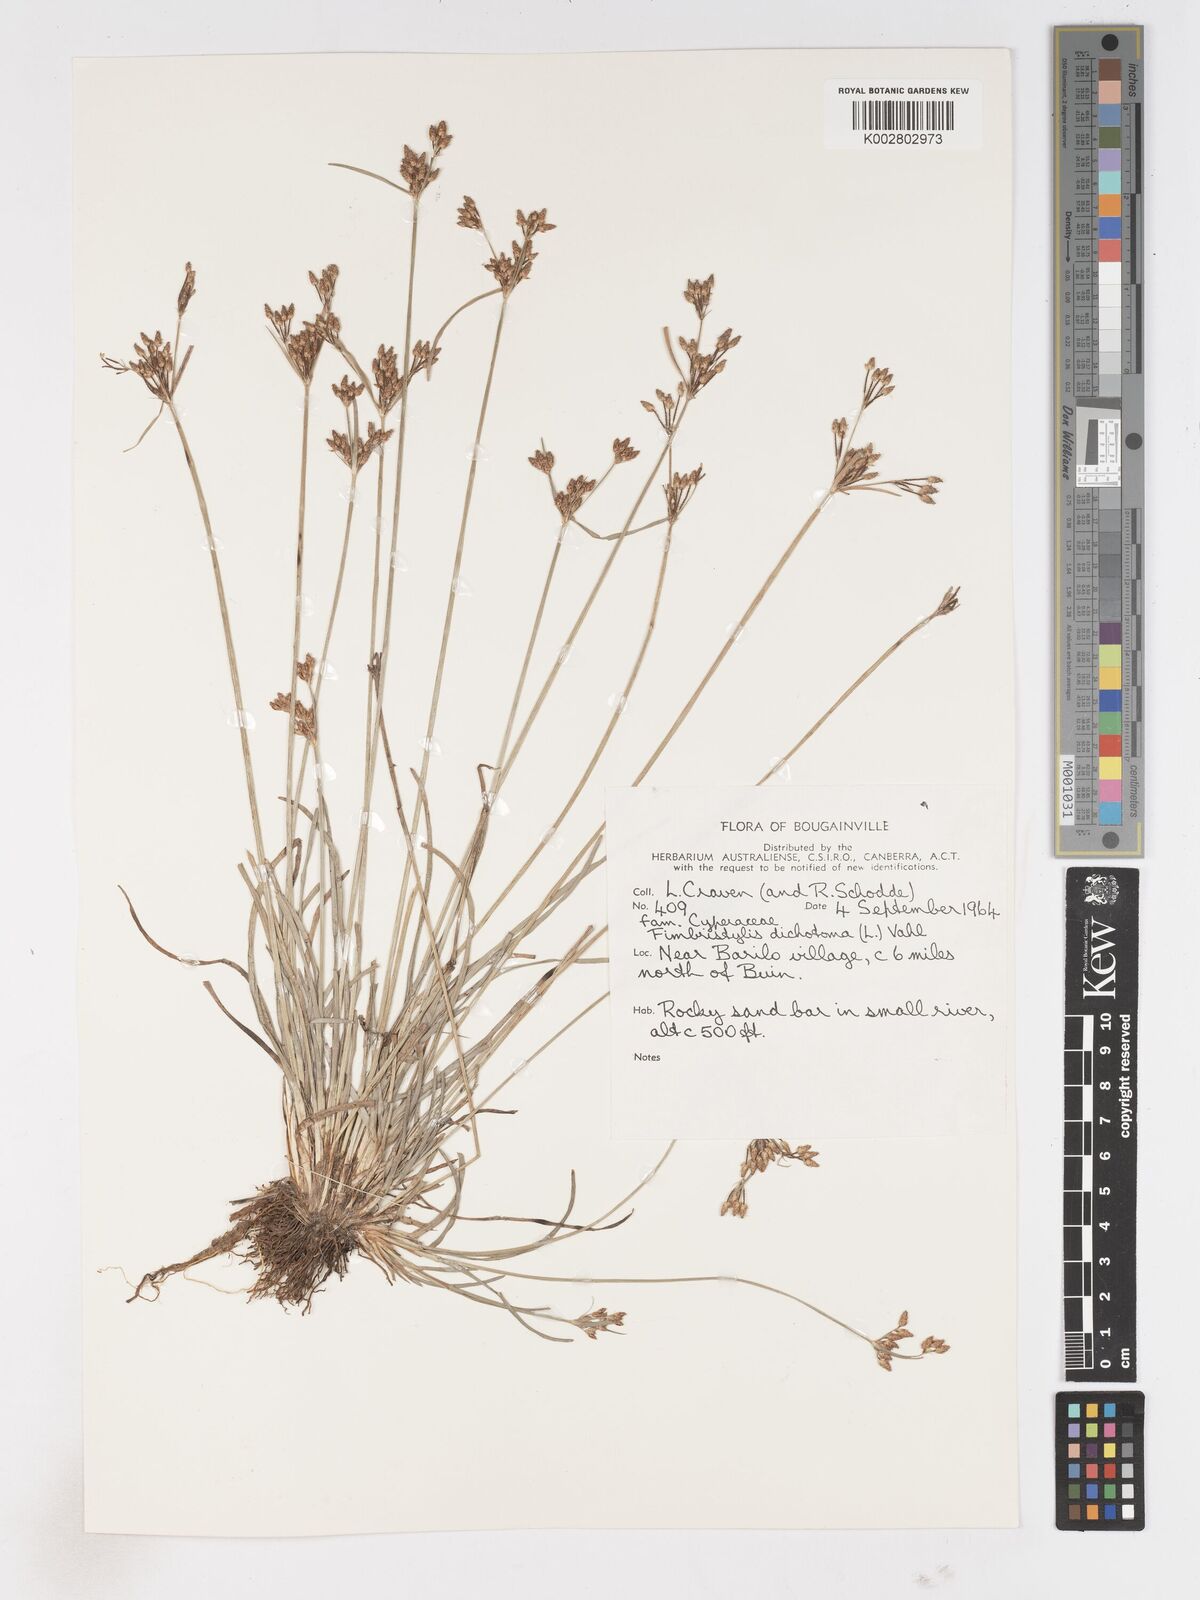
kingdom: Plantae
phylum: Tracheophyta
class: Liliopsida
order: Poales
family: Cyperaceae
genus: Fimbristylis
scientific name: Fimbristylis dichotoma
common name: Forked fimbry
